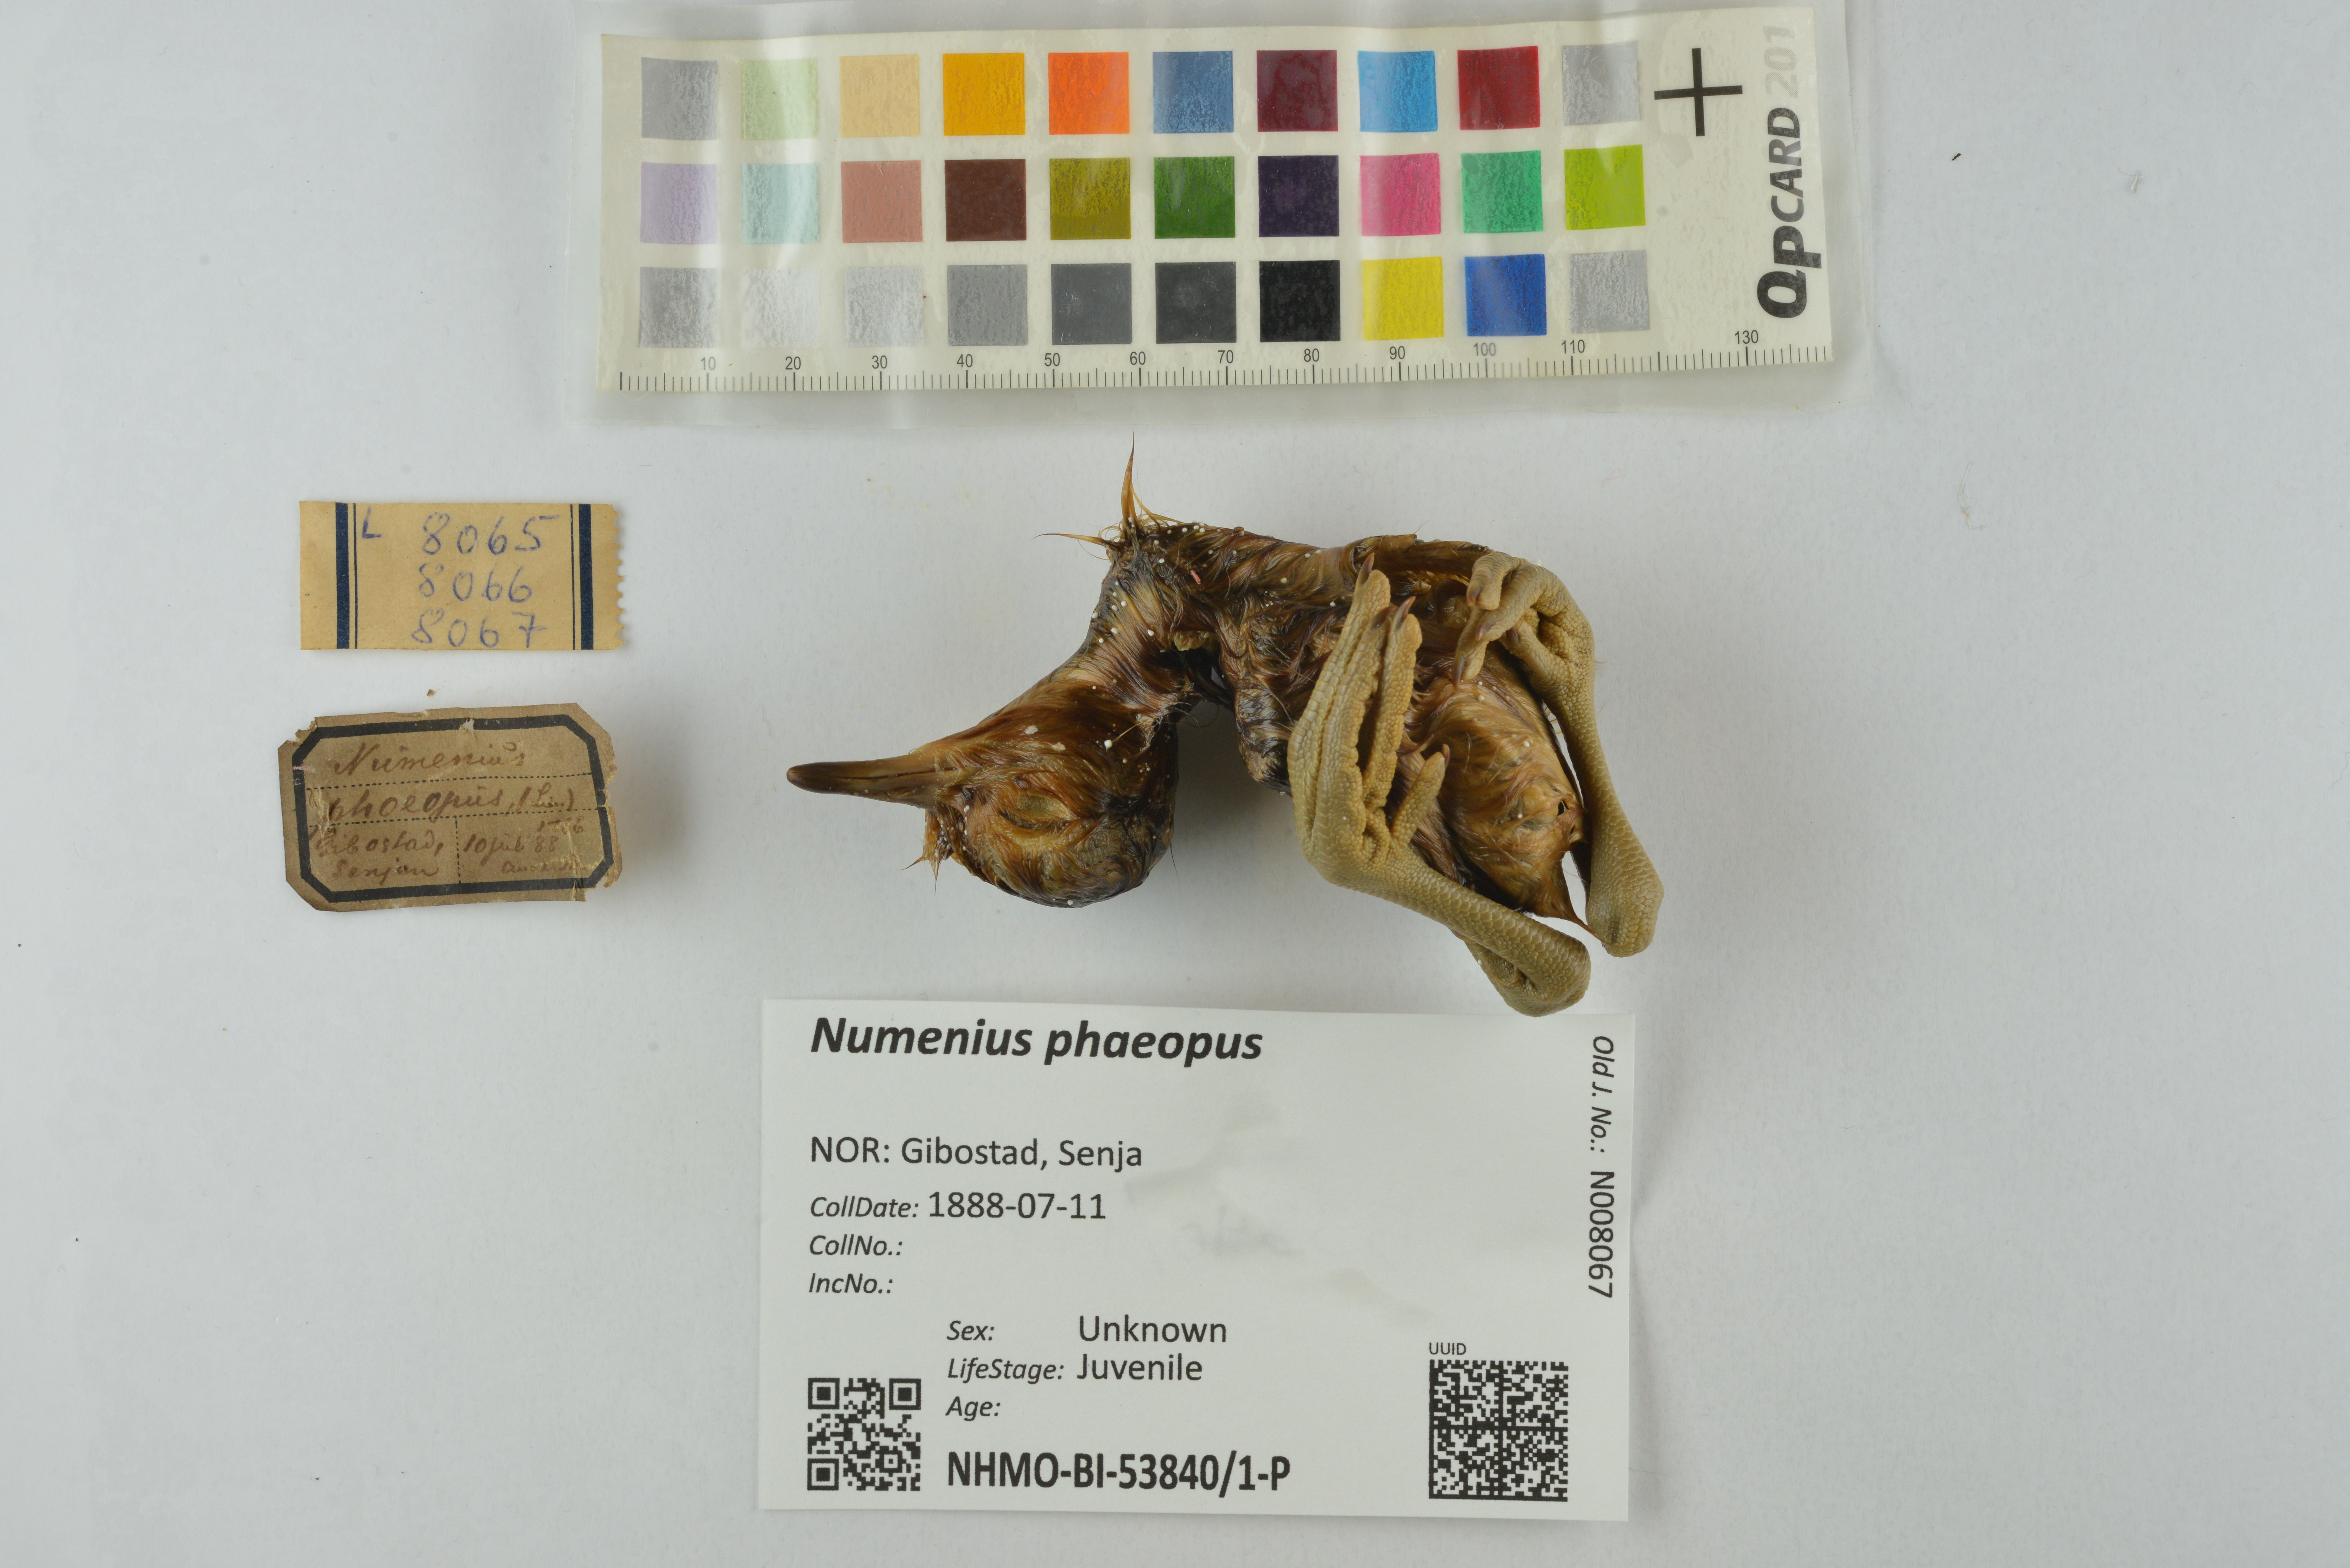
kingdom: Animalia
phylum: Chordata
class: Aves
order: Charadriiformes
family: Scolopacidae
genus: Numenius
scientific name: Numenius phaeopus
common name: Whimbrel
